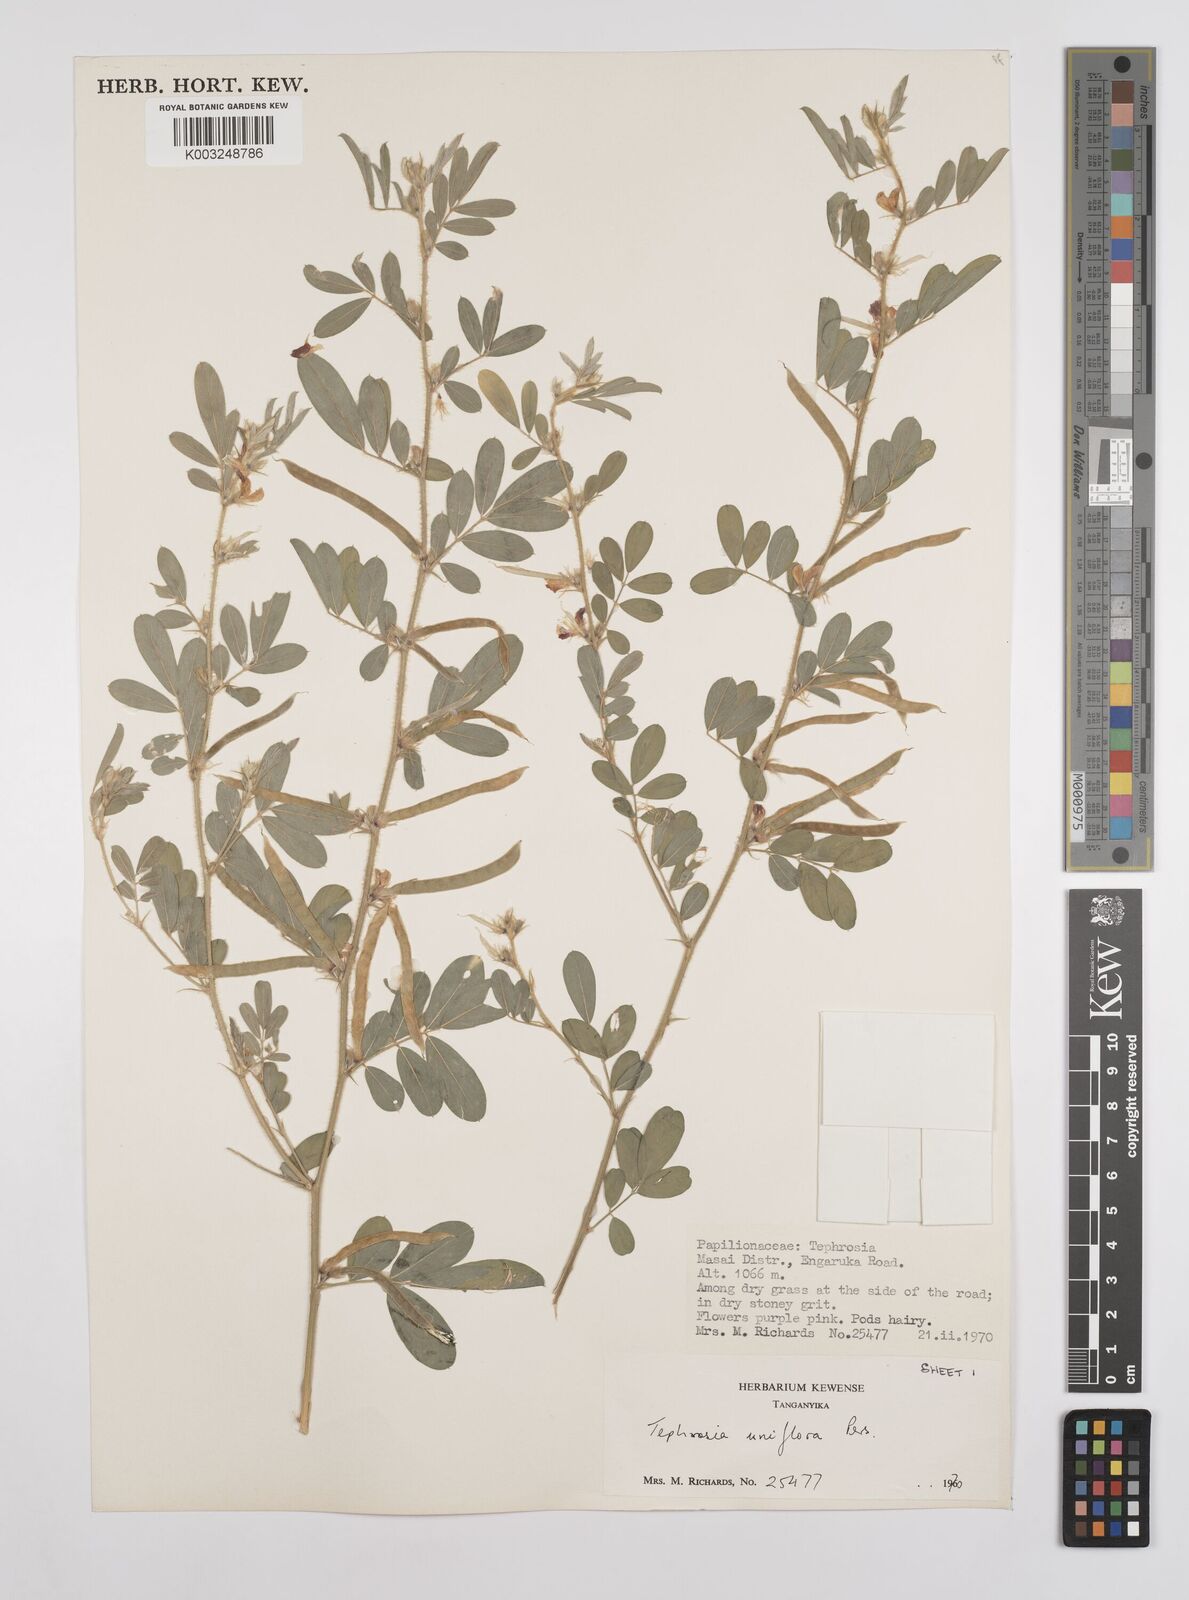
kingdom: Plantae
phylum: Tracheophyta
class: Magnoliopsida
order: Fabales
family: Fabaceae
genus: Tephrosia
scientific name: Tephrosia uniflora
